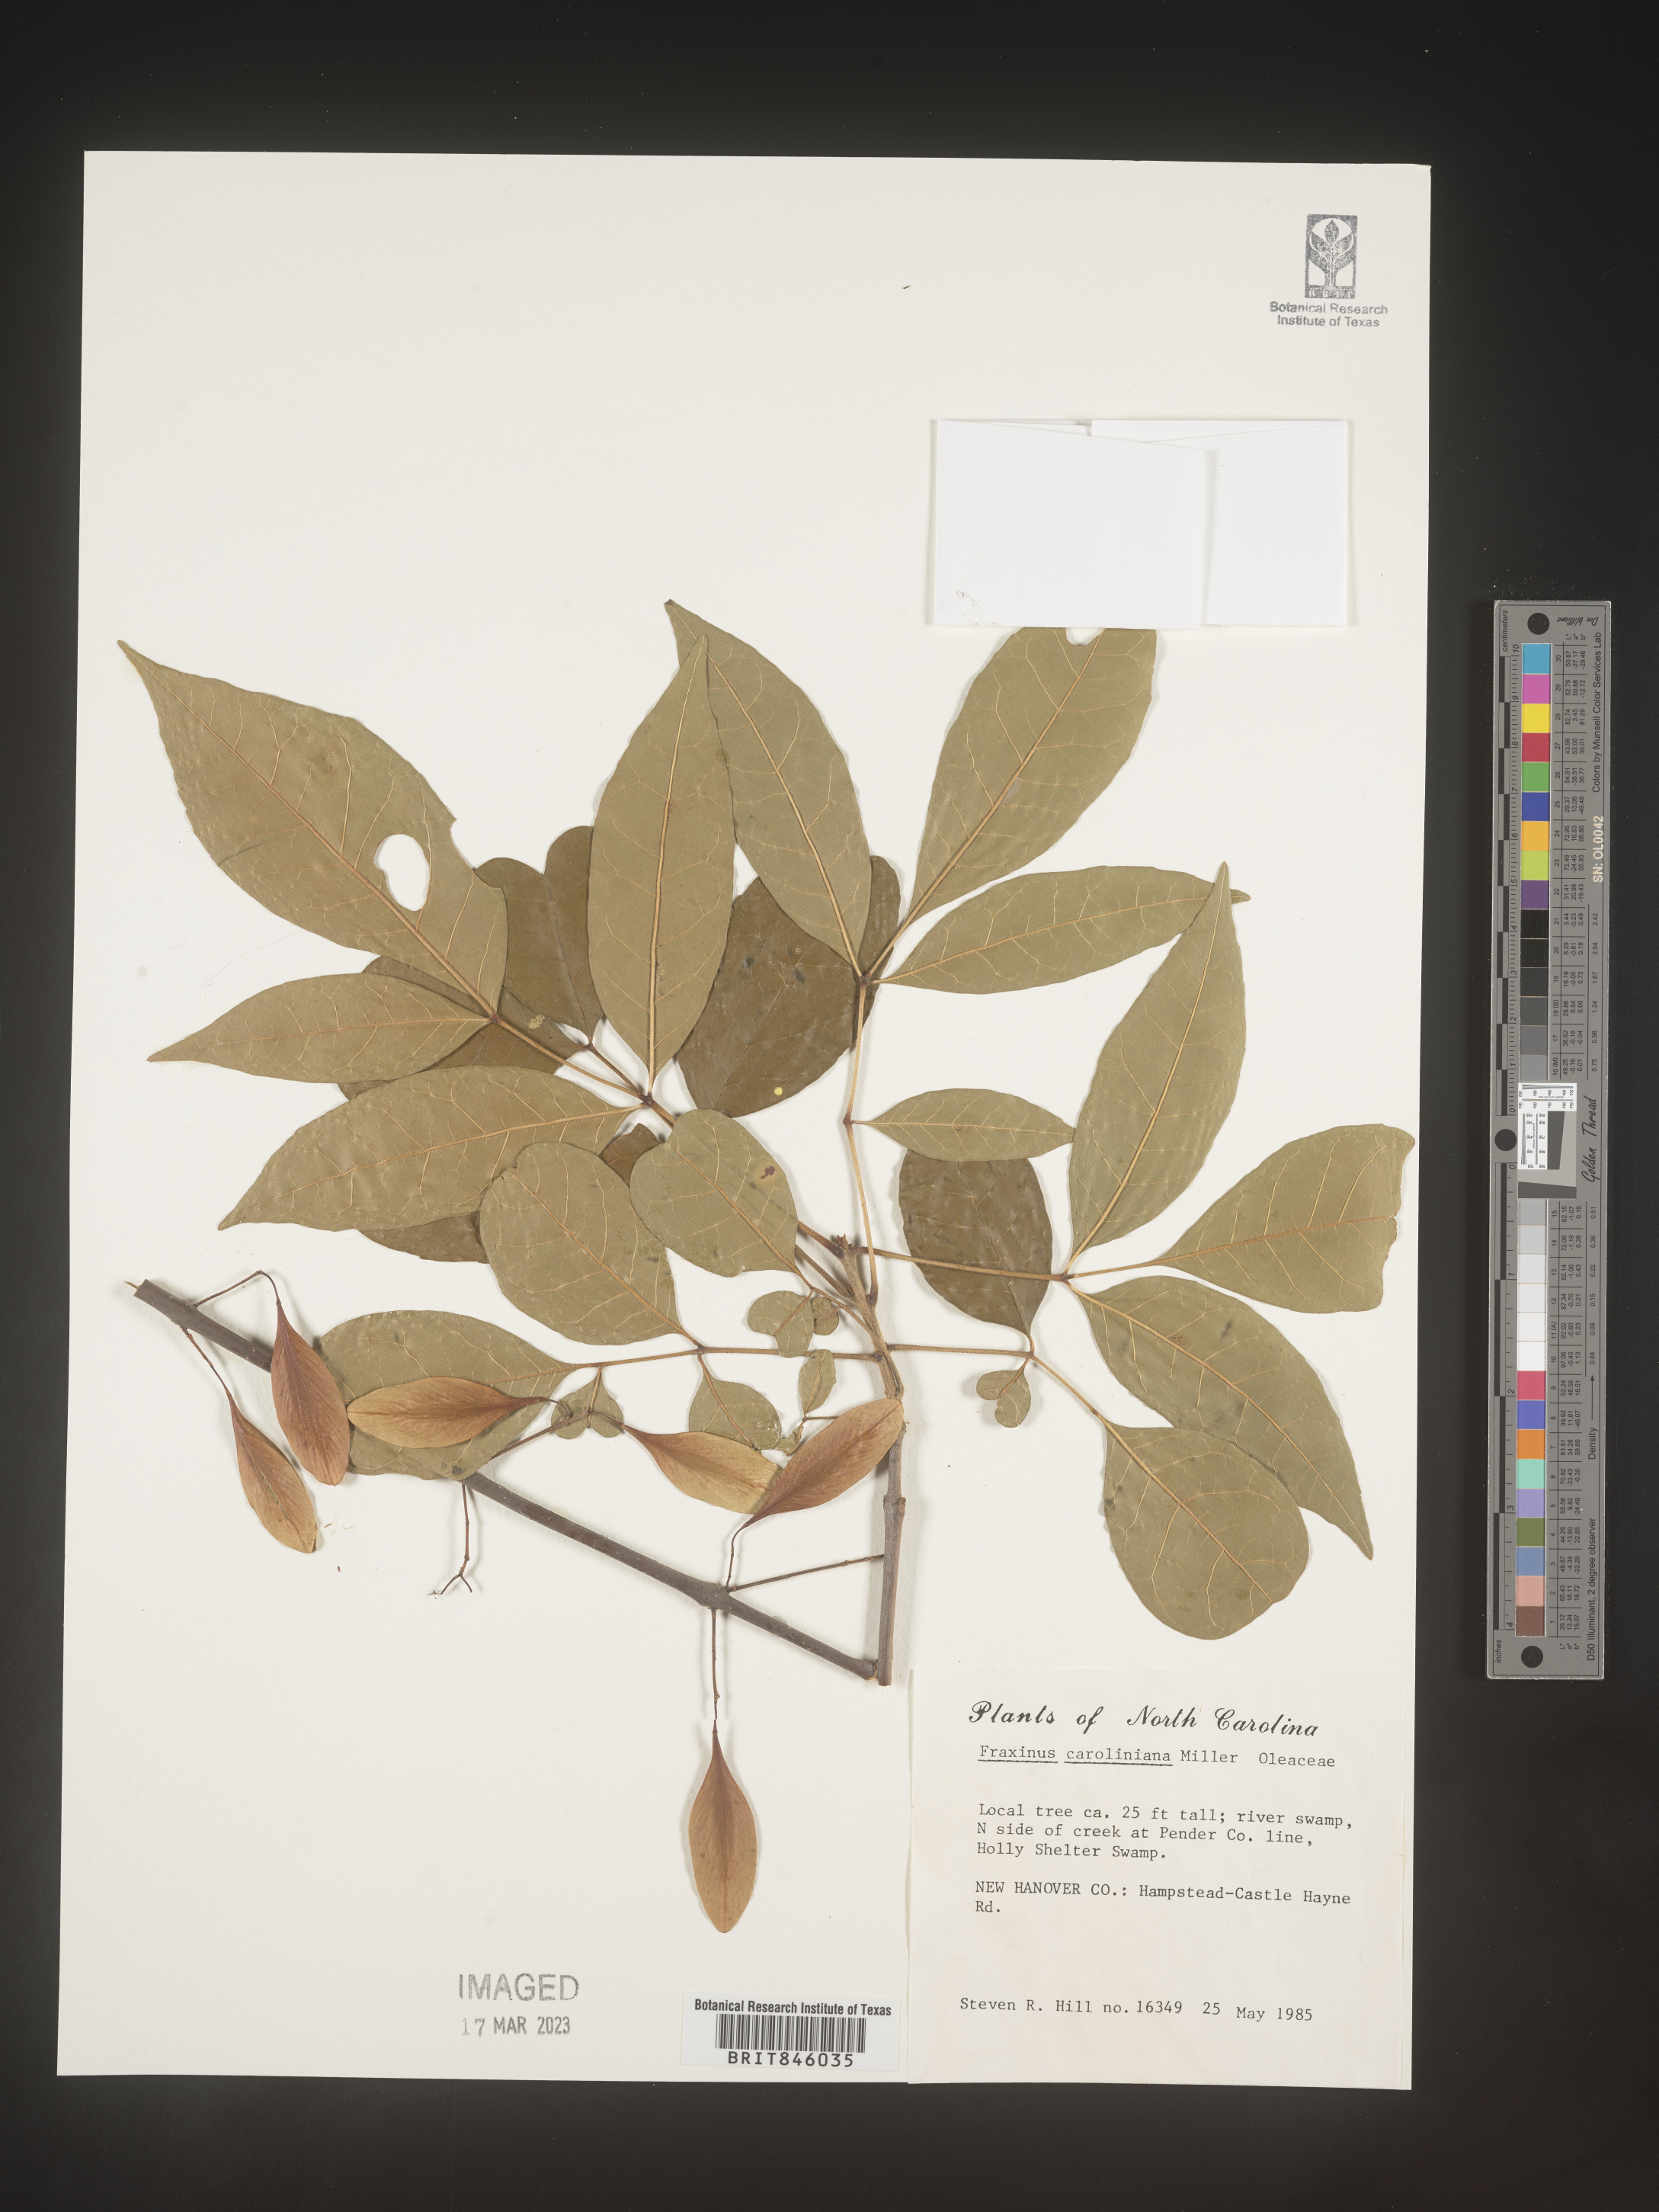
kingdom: Plantae
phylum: Tracheophyta
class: Magnoliopsida
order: Lamiales
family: Oleaceae
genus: Fraxinus
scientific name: Fraxinus caroliniana
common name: Carolina ash
